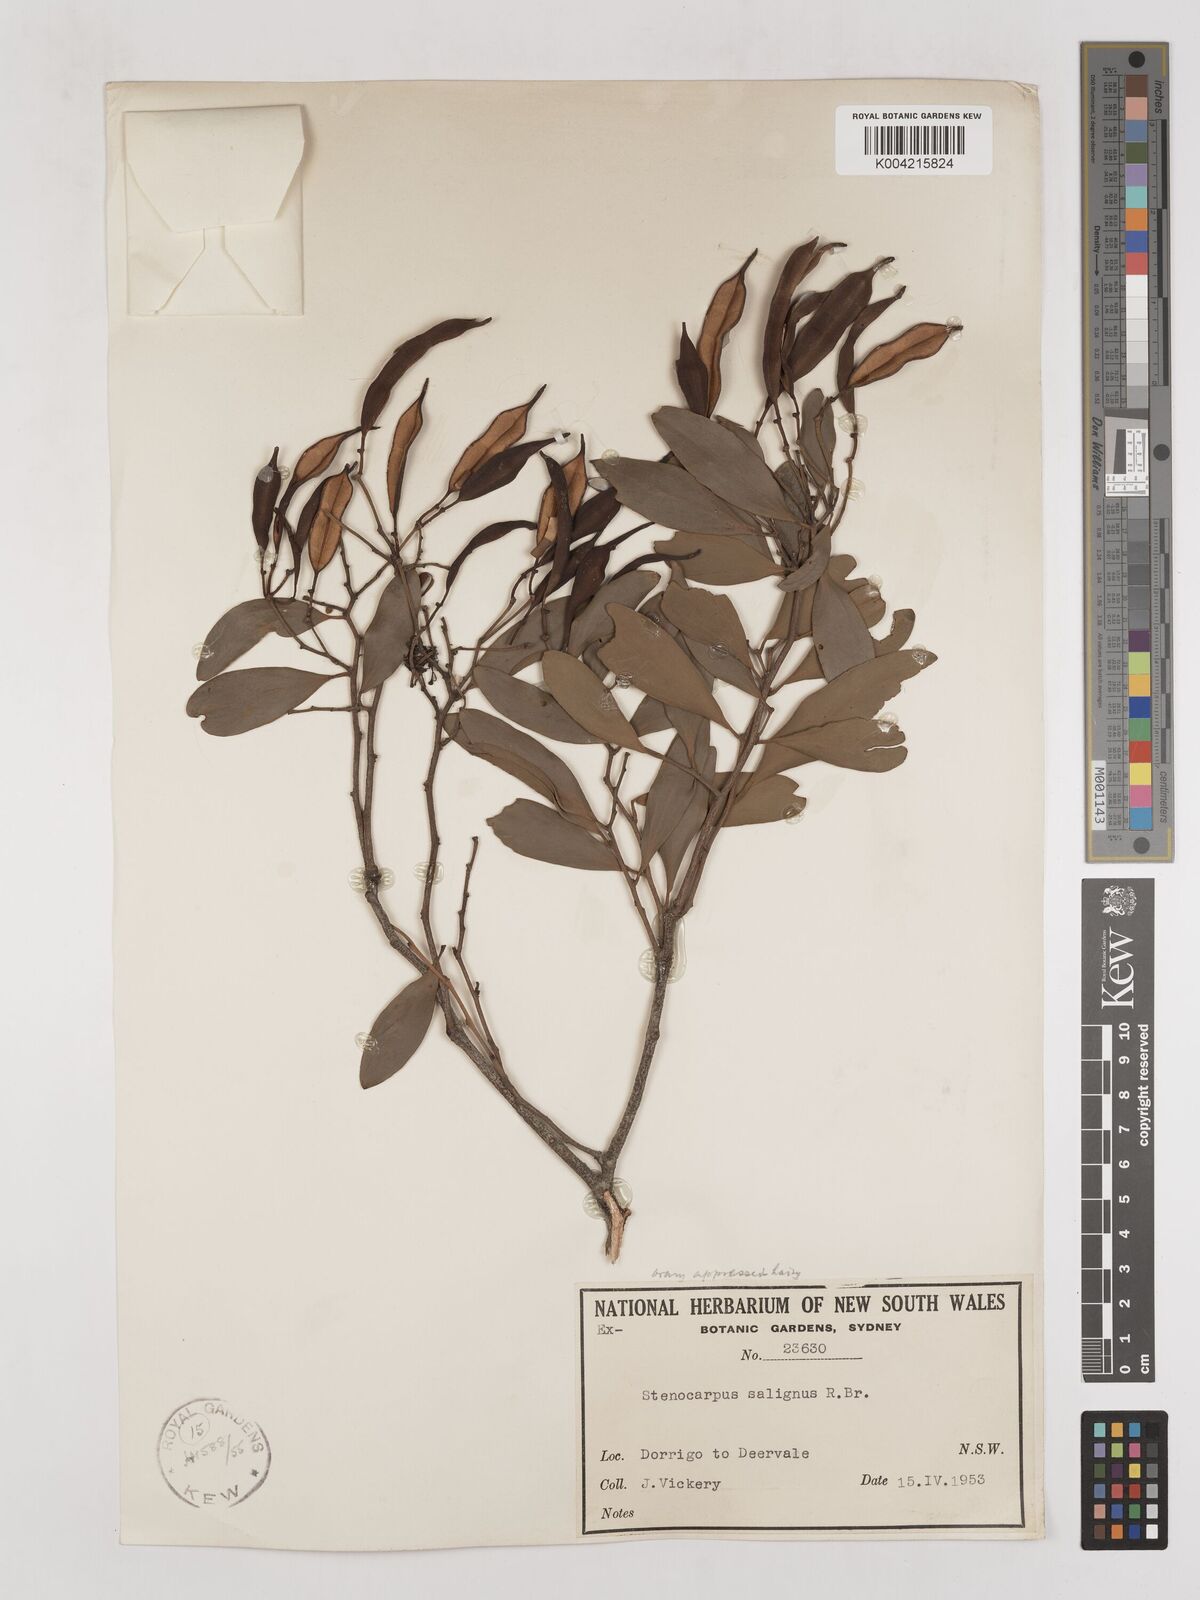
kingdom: Plantae
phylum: Tracheophyta
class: Magnoliopsida
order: Proteales
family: Proteaceae
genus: Stenocarpus
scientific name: Stenocarpus salignus
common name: Red silky-oak
